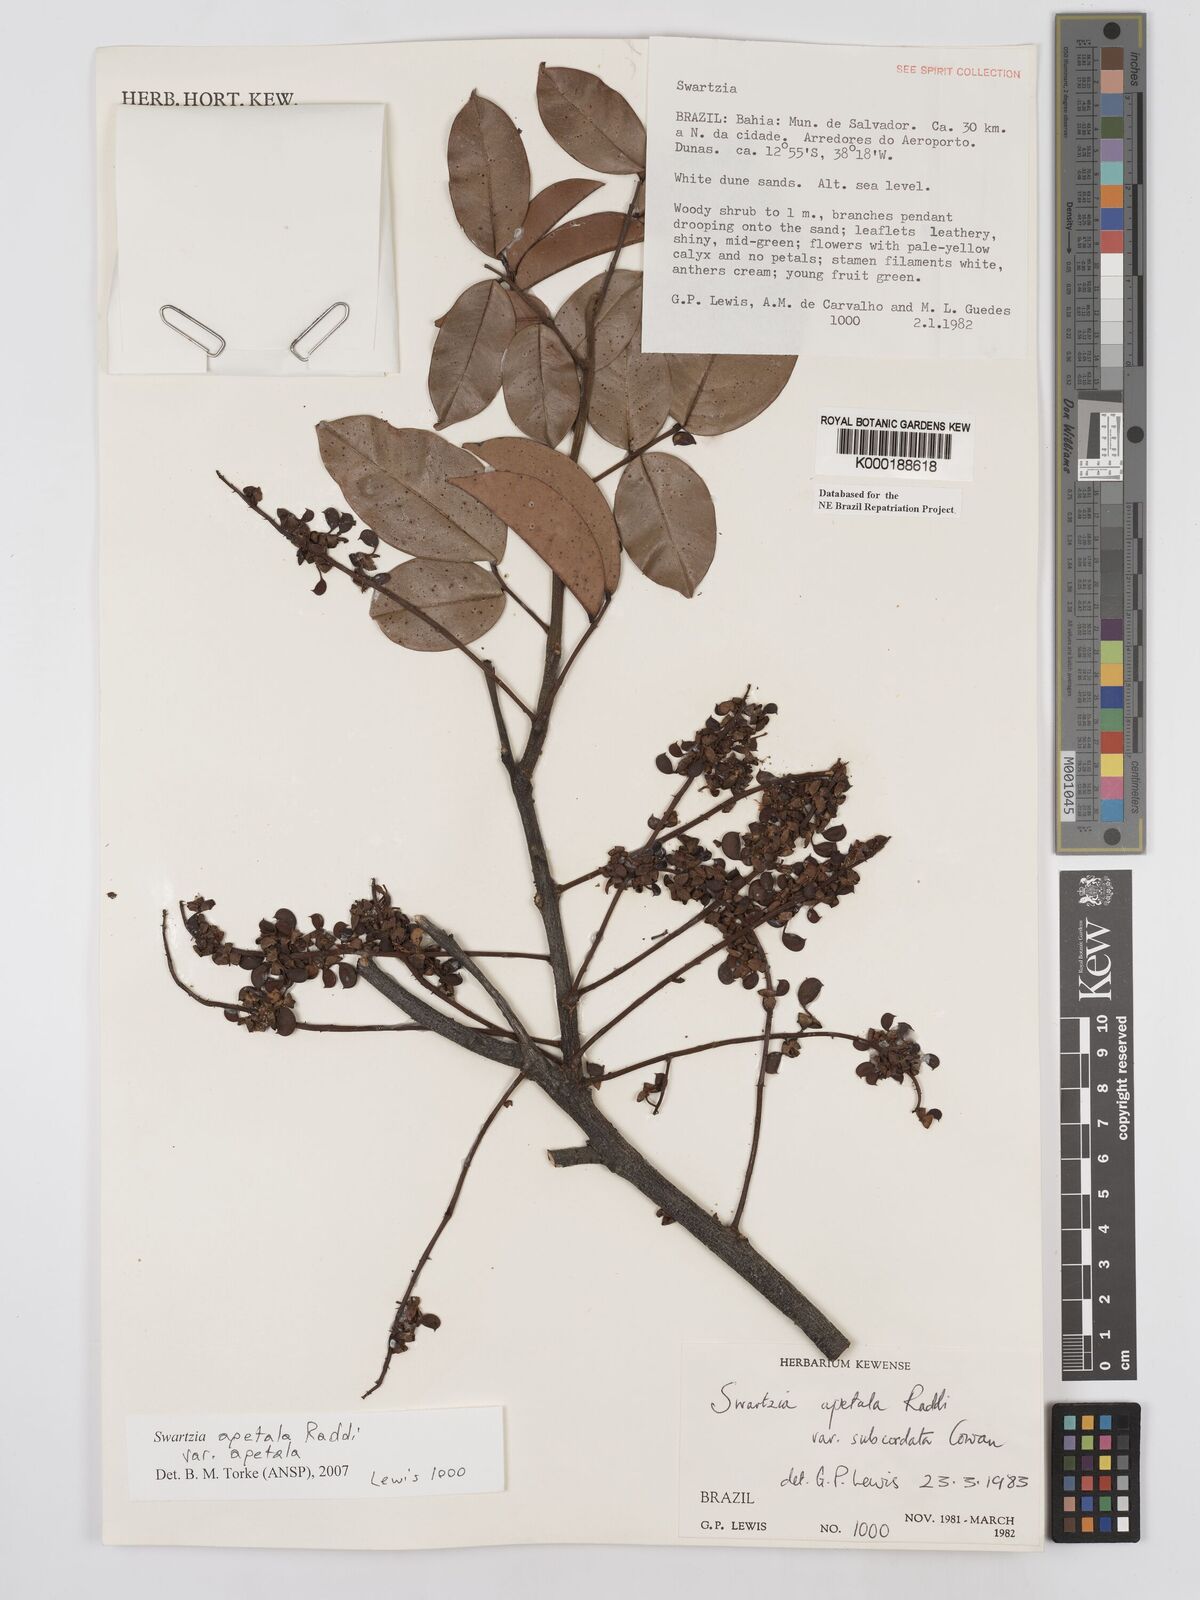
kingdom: Plantae
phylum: Tracheophyta
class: Magnoliopsida
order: Fabales
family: Fabaceae
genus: Swartzia
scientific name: Swartzia apetala
